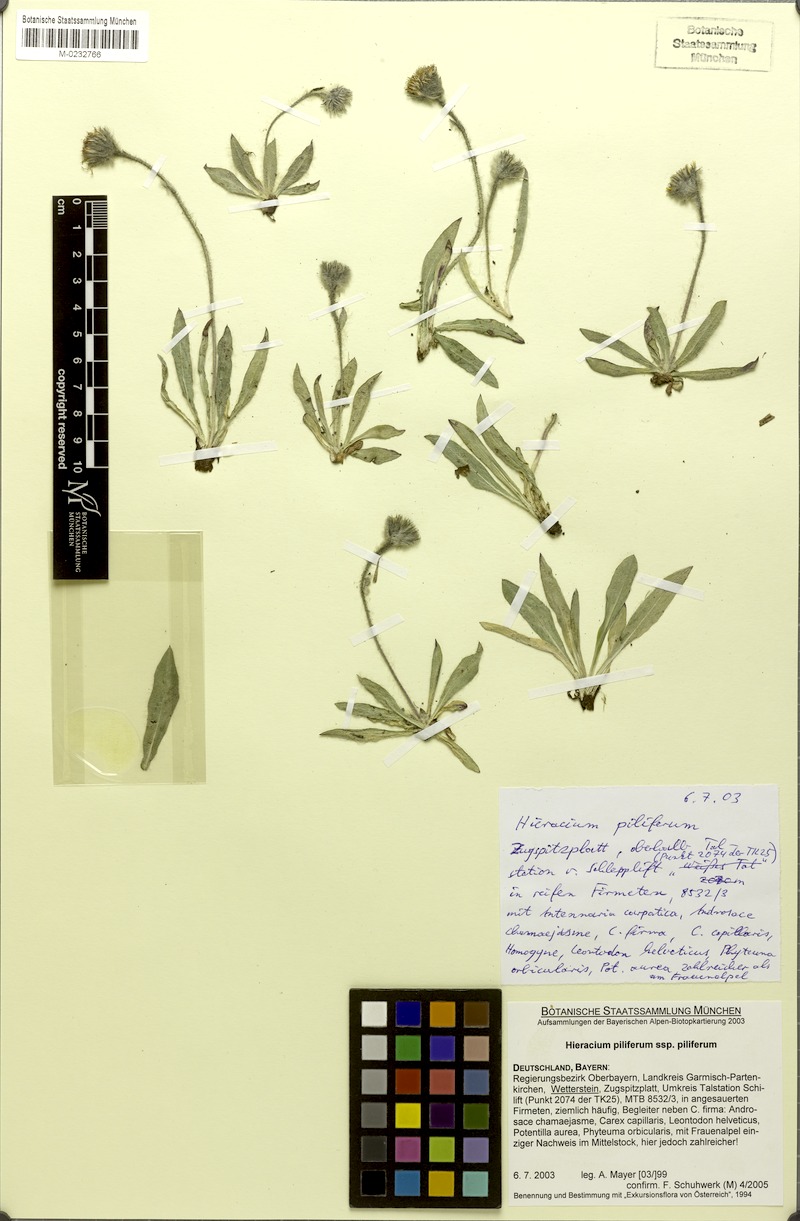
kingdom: Plantae
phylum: Tracheophyta
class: Magnoliopsida
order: Asterales
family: Asteraceae
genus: Hieracium
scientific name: Hieracium piliferum
